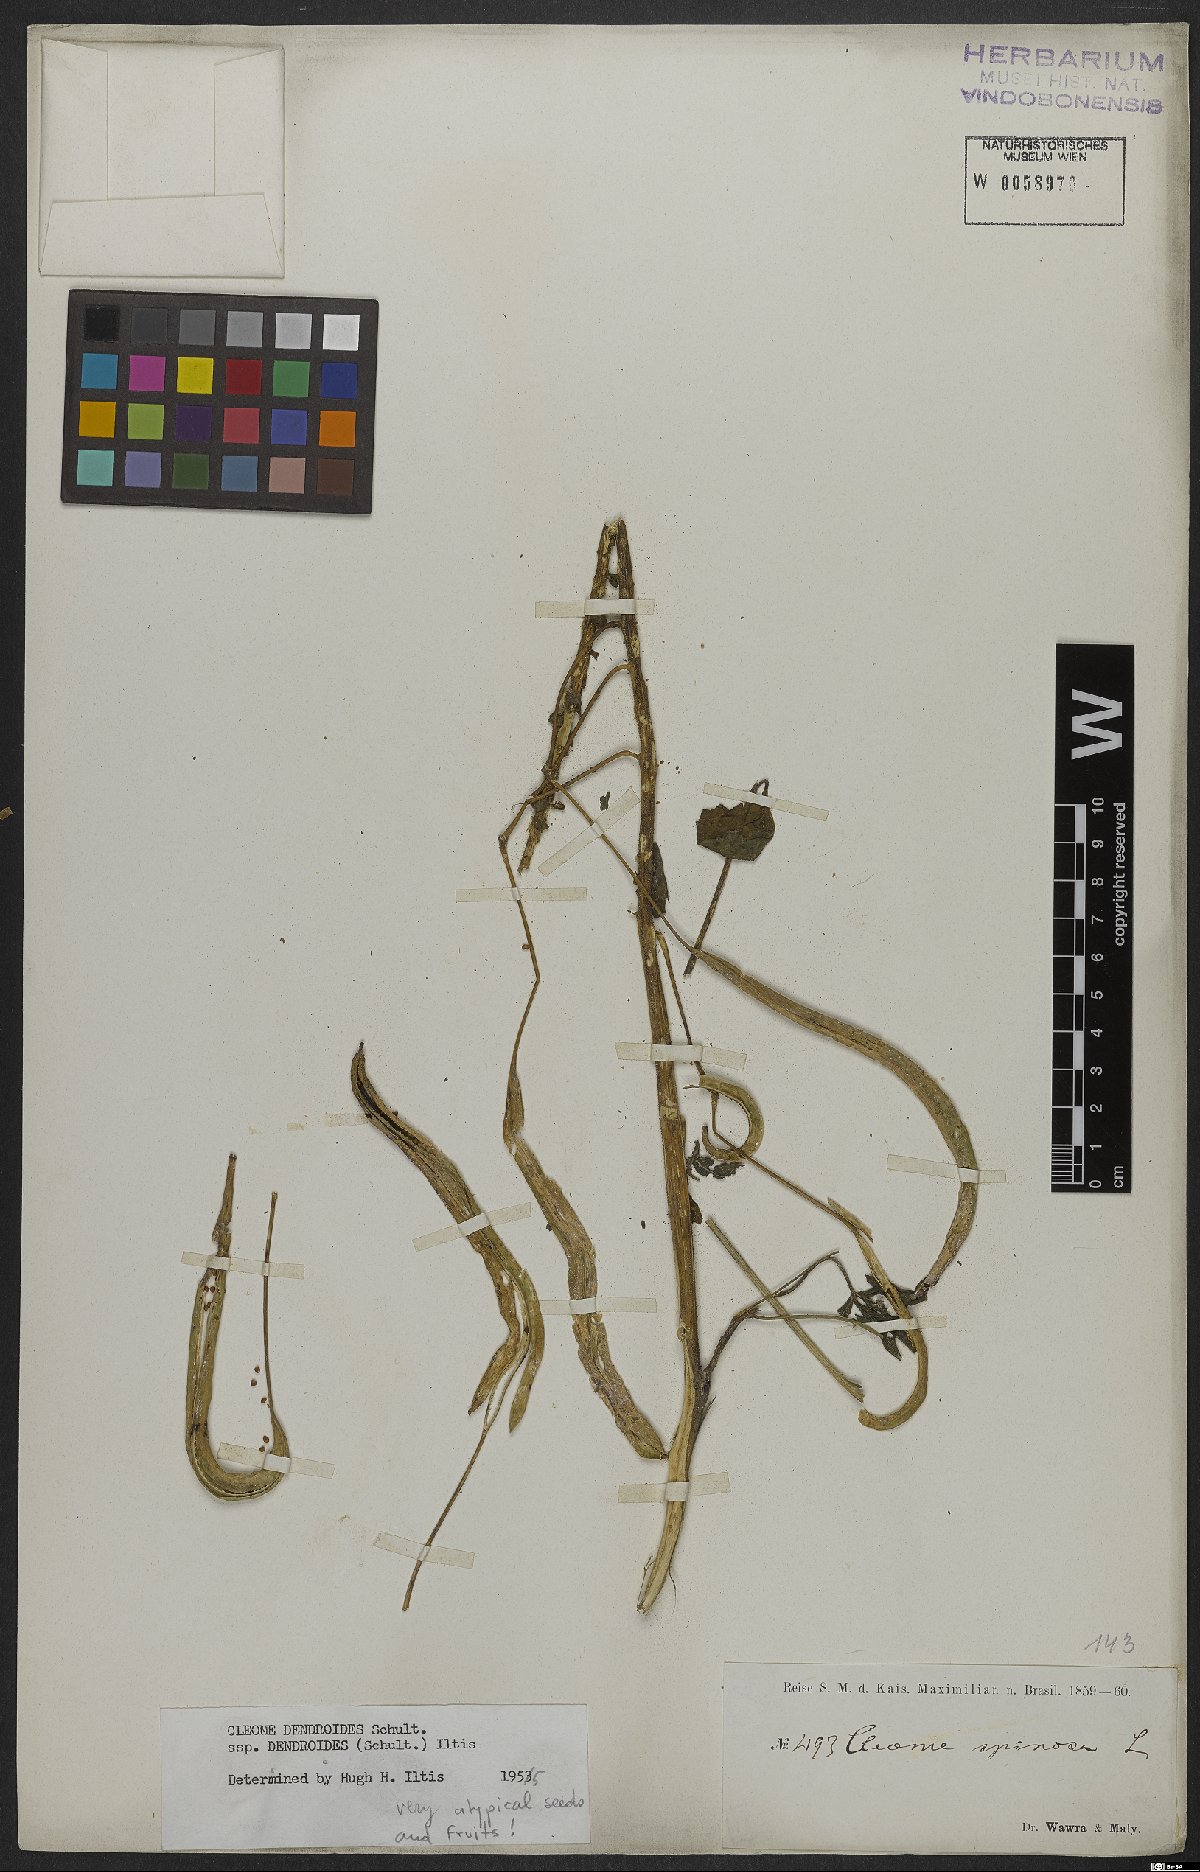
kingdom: Plantae
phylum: Tracheophyta
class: Magnoliopsida
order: Brassicales
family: Cleomaceae
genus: Tarenaya
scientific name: Tarenaya atropurpurea
